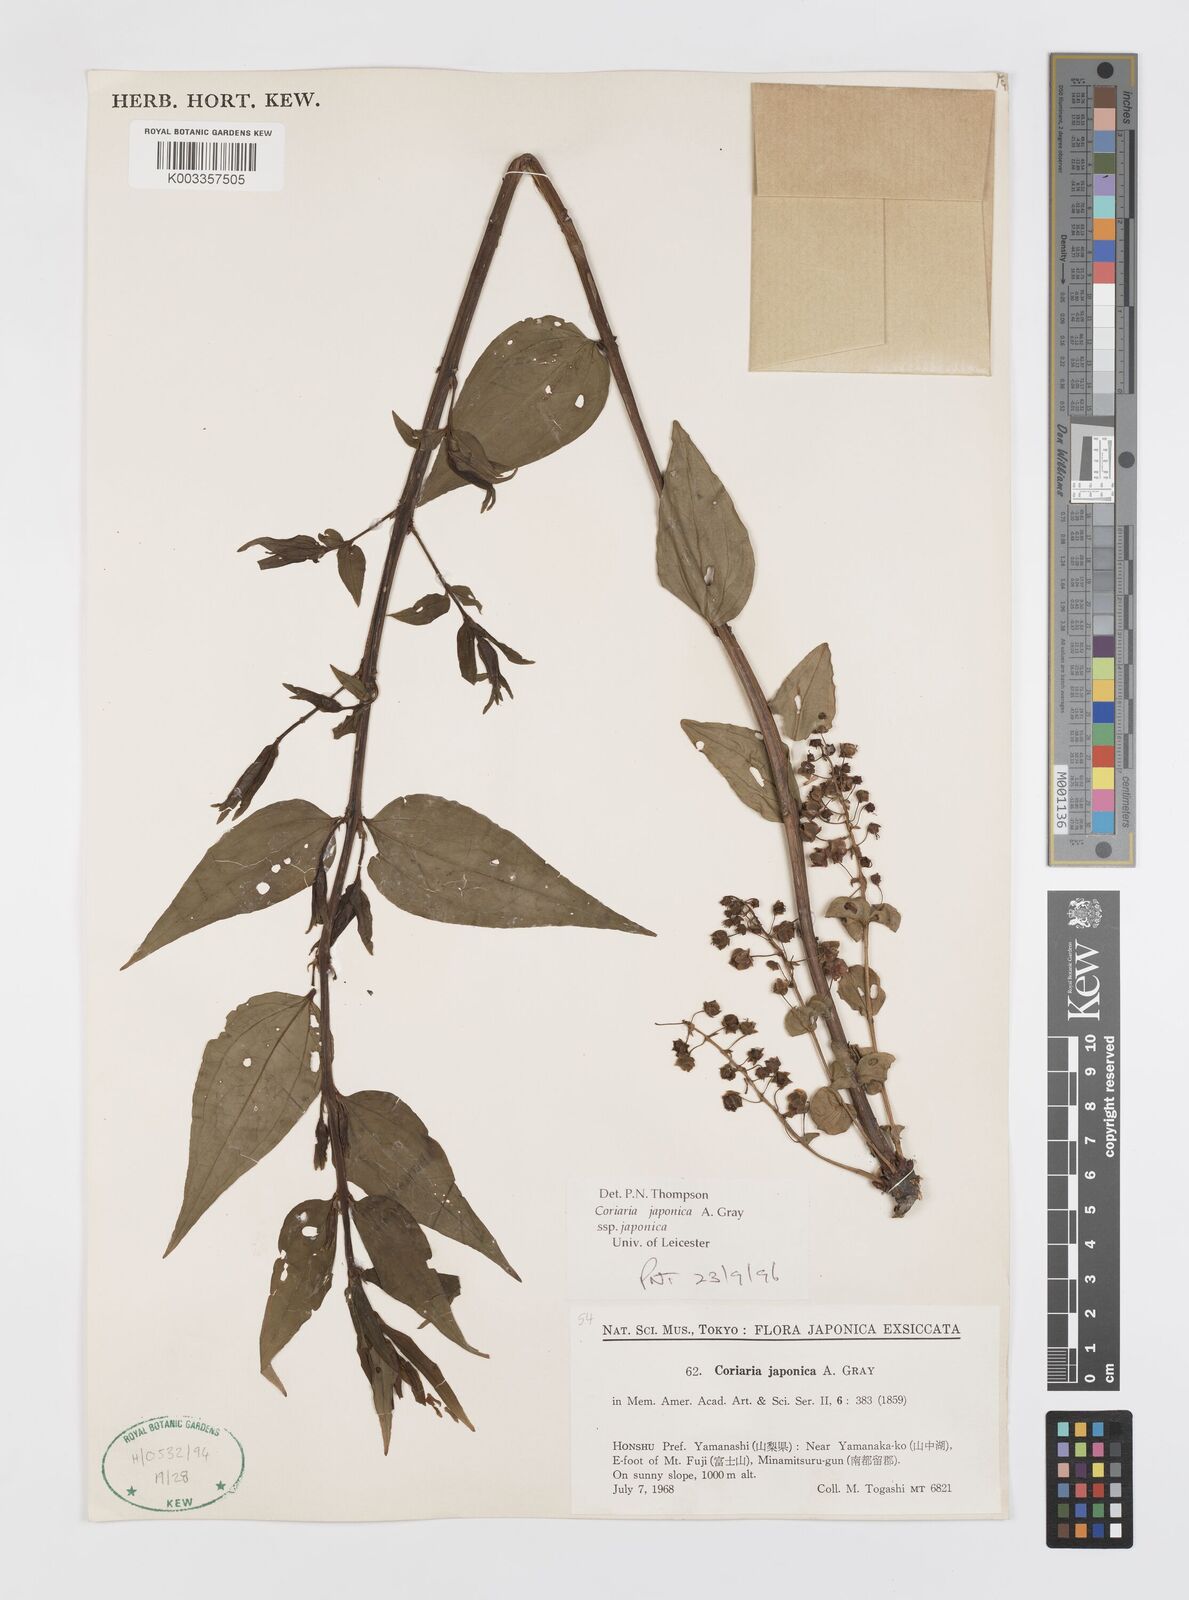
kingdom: Plantae
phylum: Tracheophyta
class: Magnoliopsida
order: Cucurbitales
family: Coriariaceae
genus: Coriaria
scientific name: Coriaria japonica
